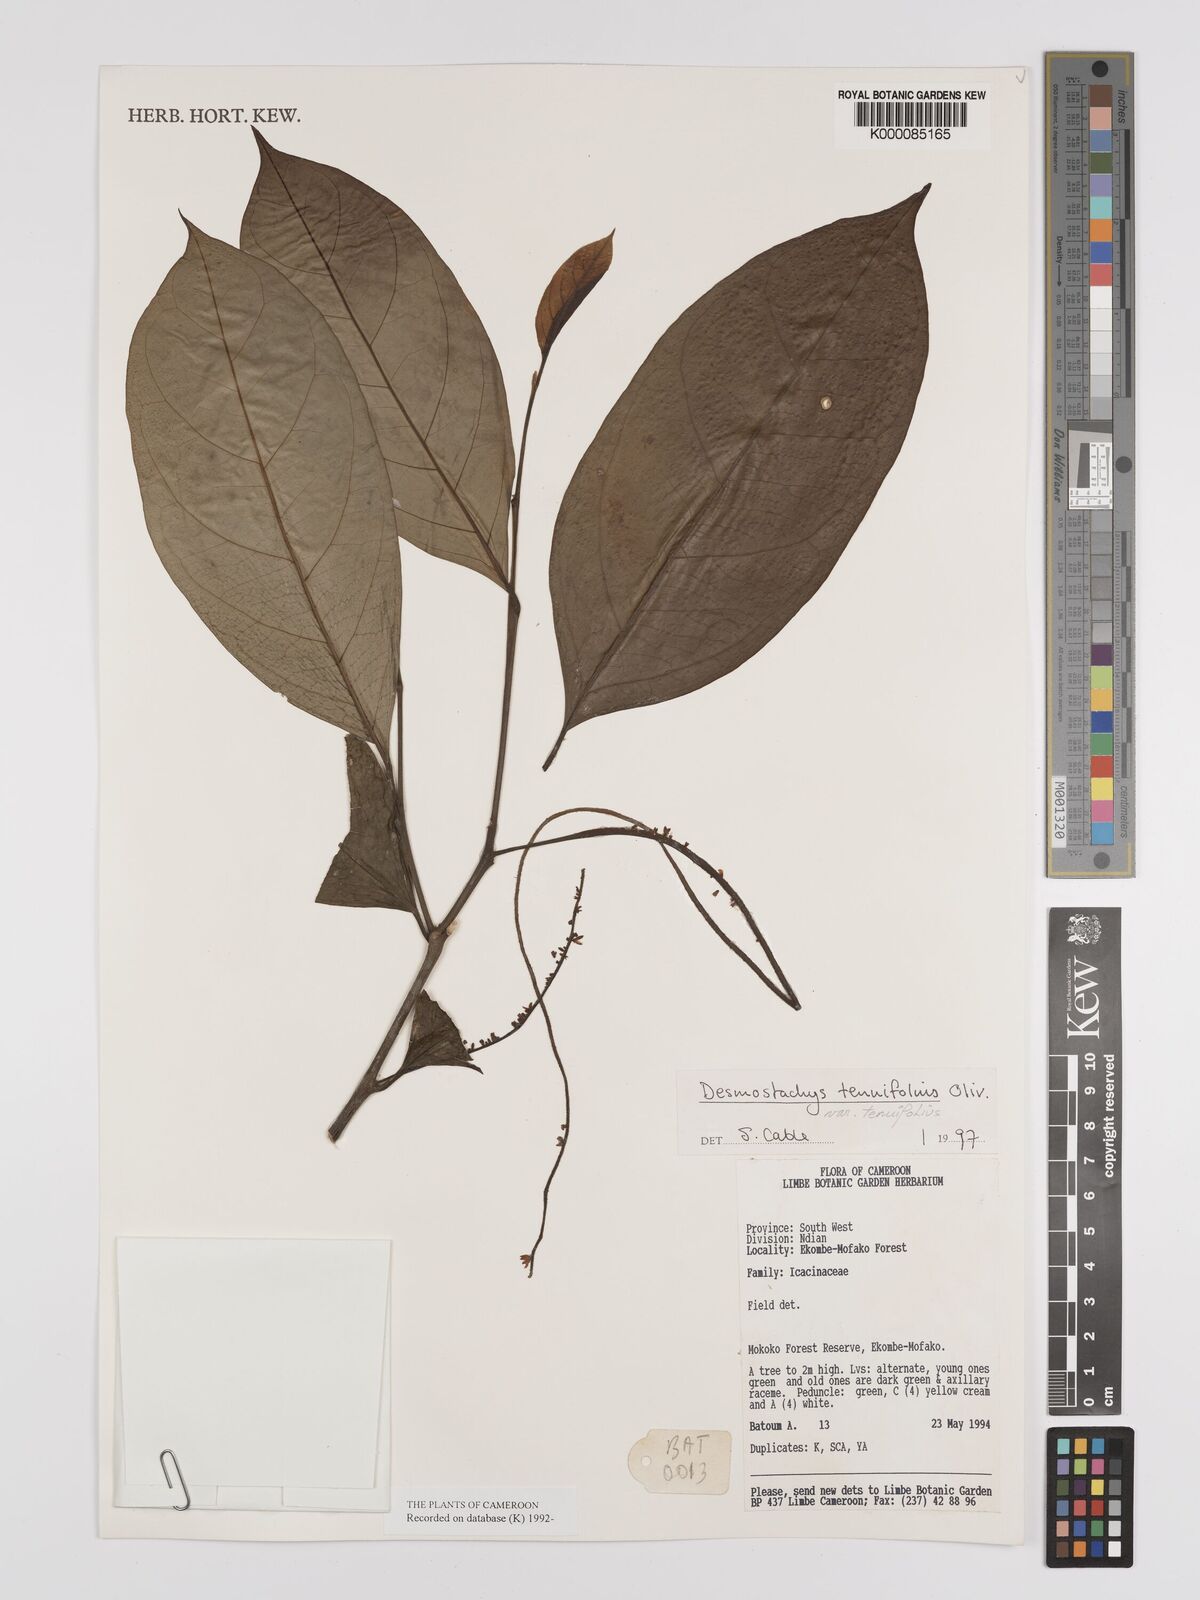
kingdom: Plantae
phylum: Tracheophyta
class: Magnoliopsida
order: Icacinales
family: Icacinaceae
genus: Vadensea
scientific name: Vadensea tenuifolia
